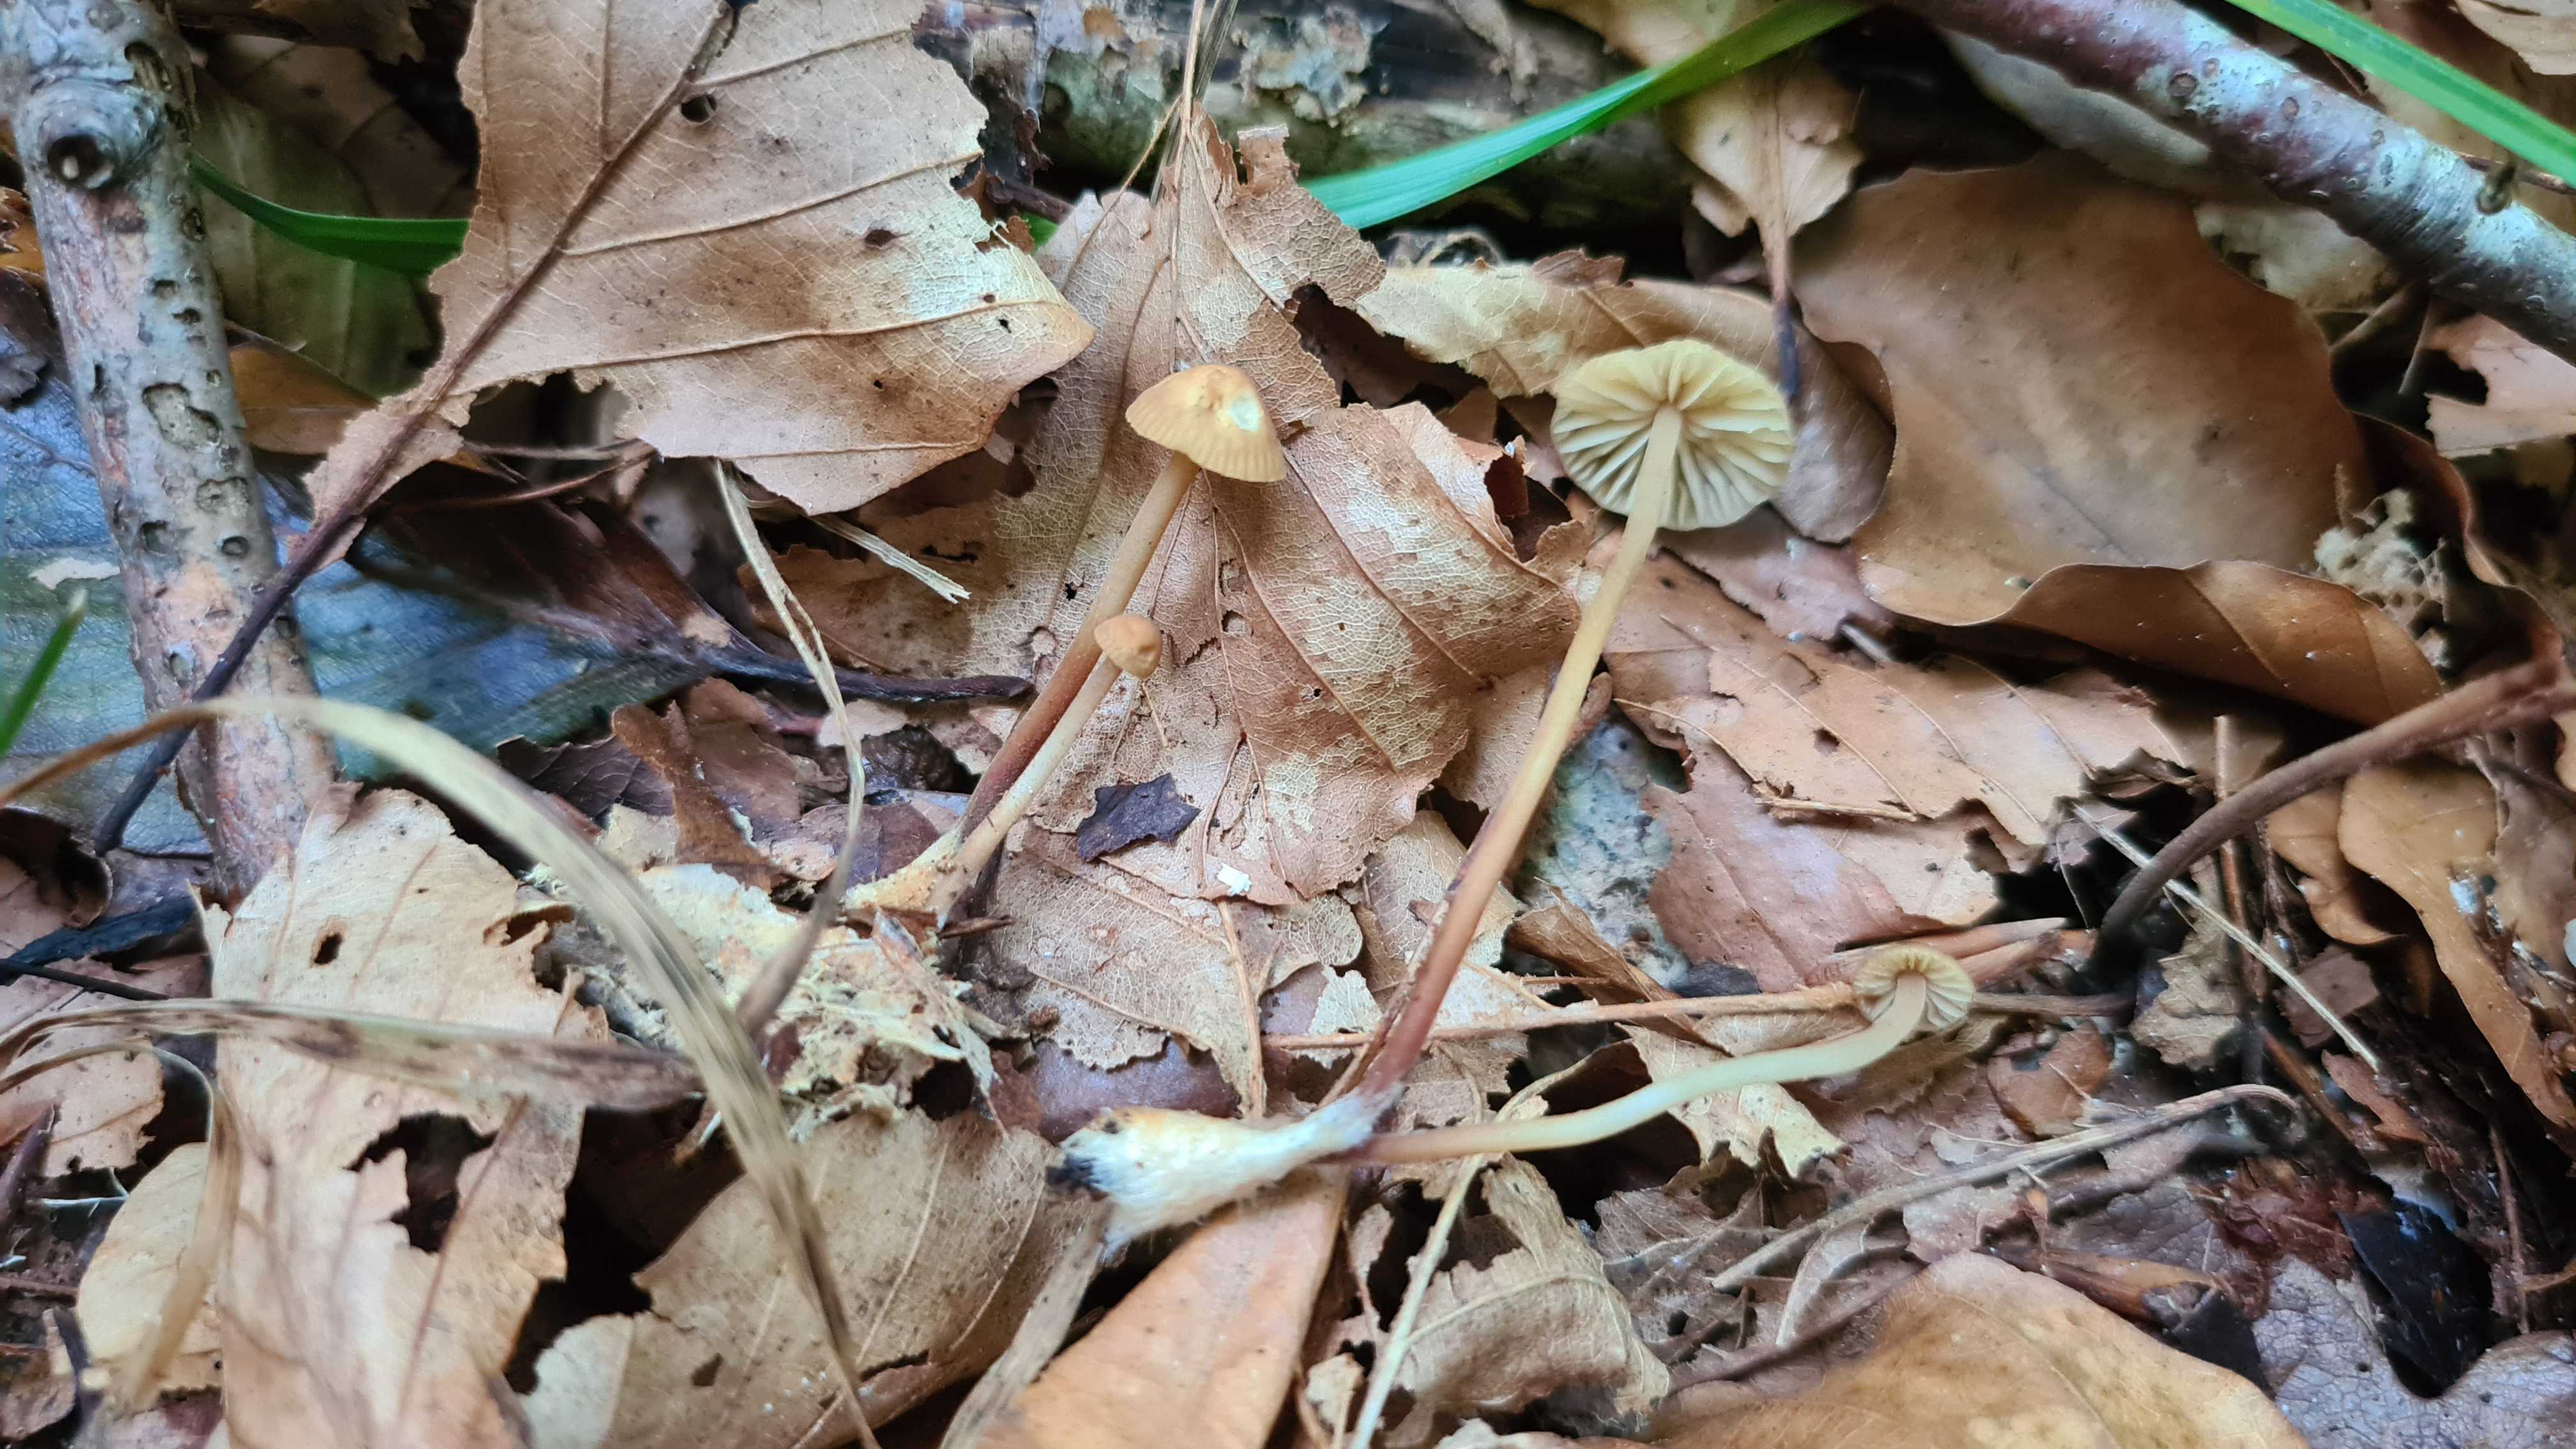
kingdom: Fungi
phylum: Basidiomycota
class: Agaricomycetes
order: Agaricales
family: Marasmiaceae
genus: Marasmius
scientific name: Marasmius torquescens
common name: filtfodet bruskhat
